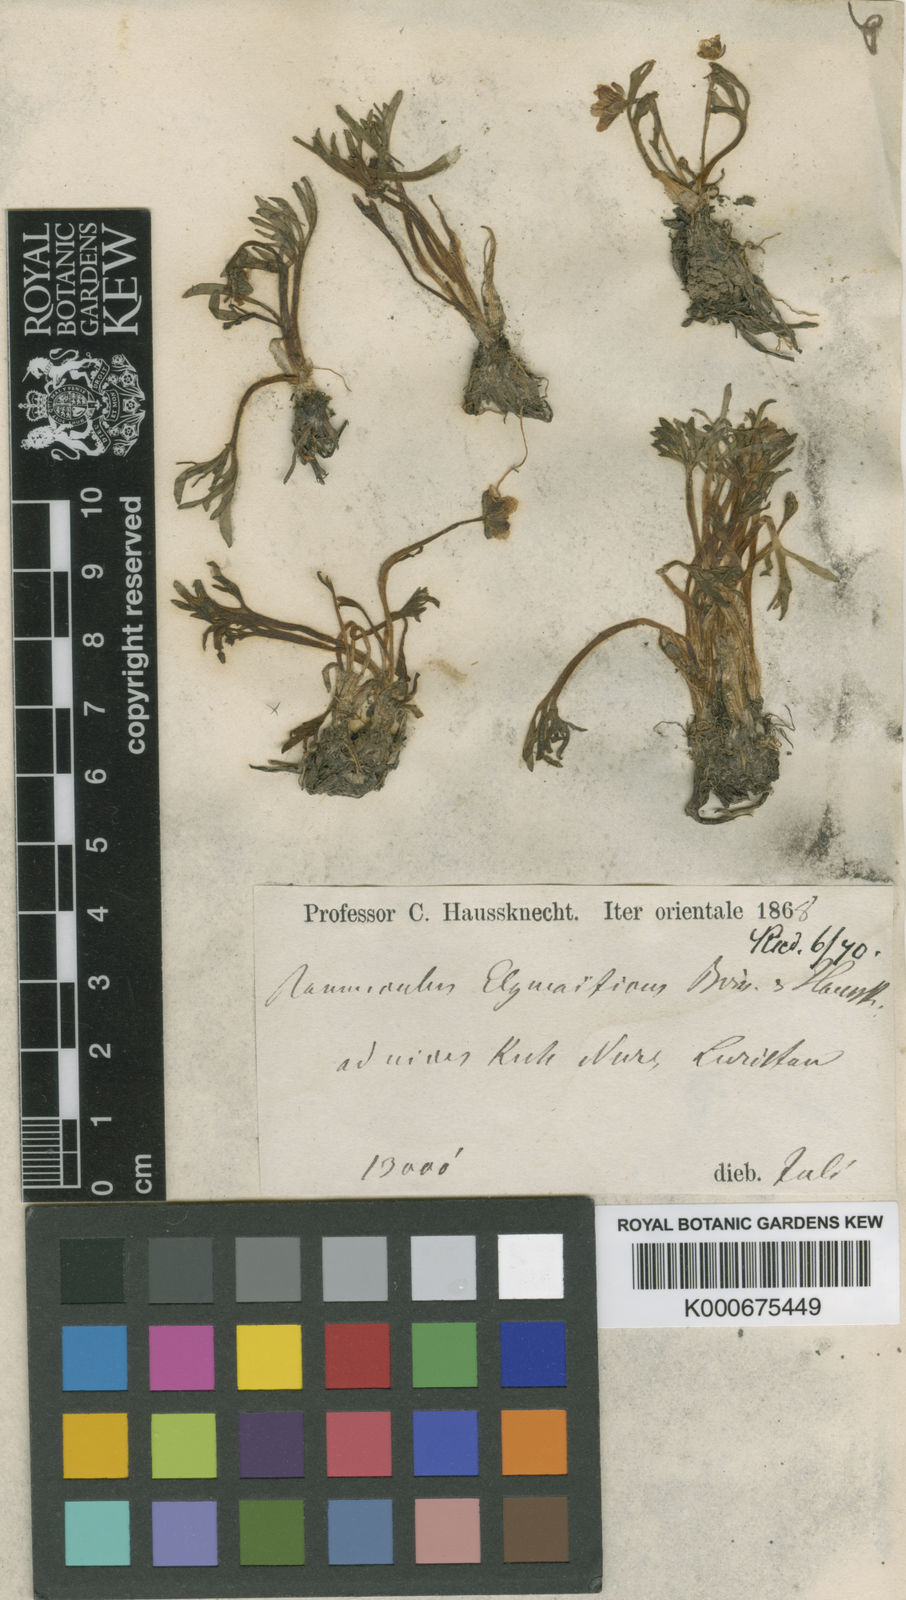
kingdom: Plantae
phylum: Tracheophyta
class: Magnoliopsida
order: Ranunculales
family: Ranunculaceae
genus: Ranunculus
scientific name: Ranunculus elymaiticus
